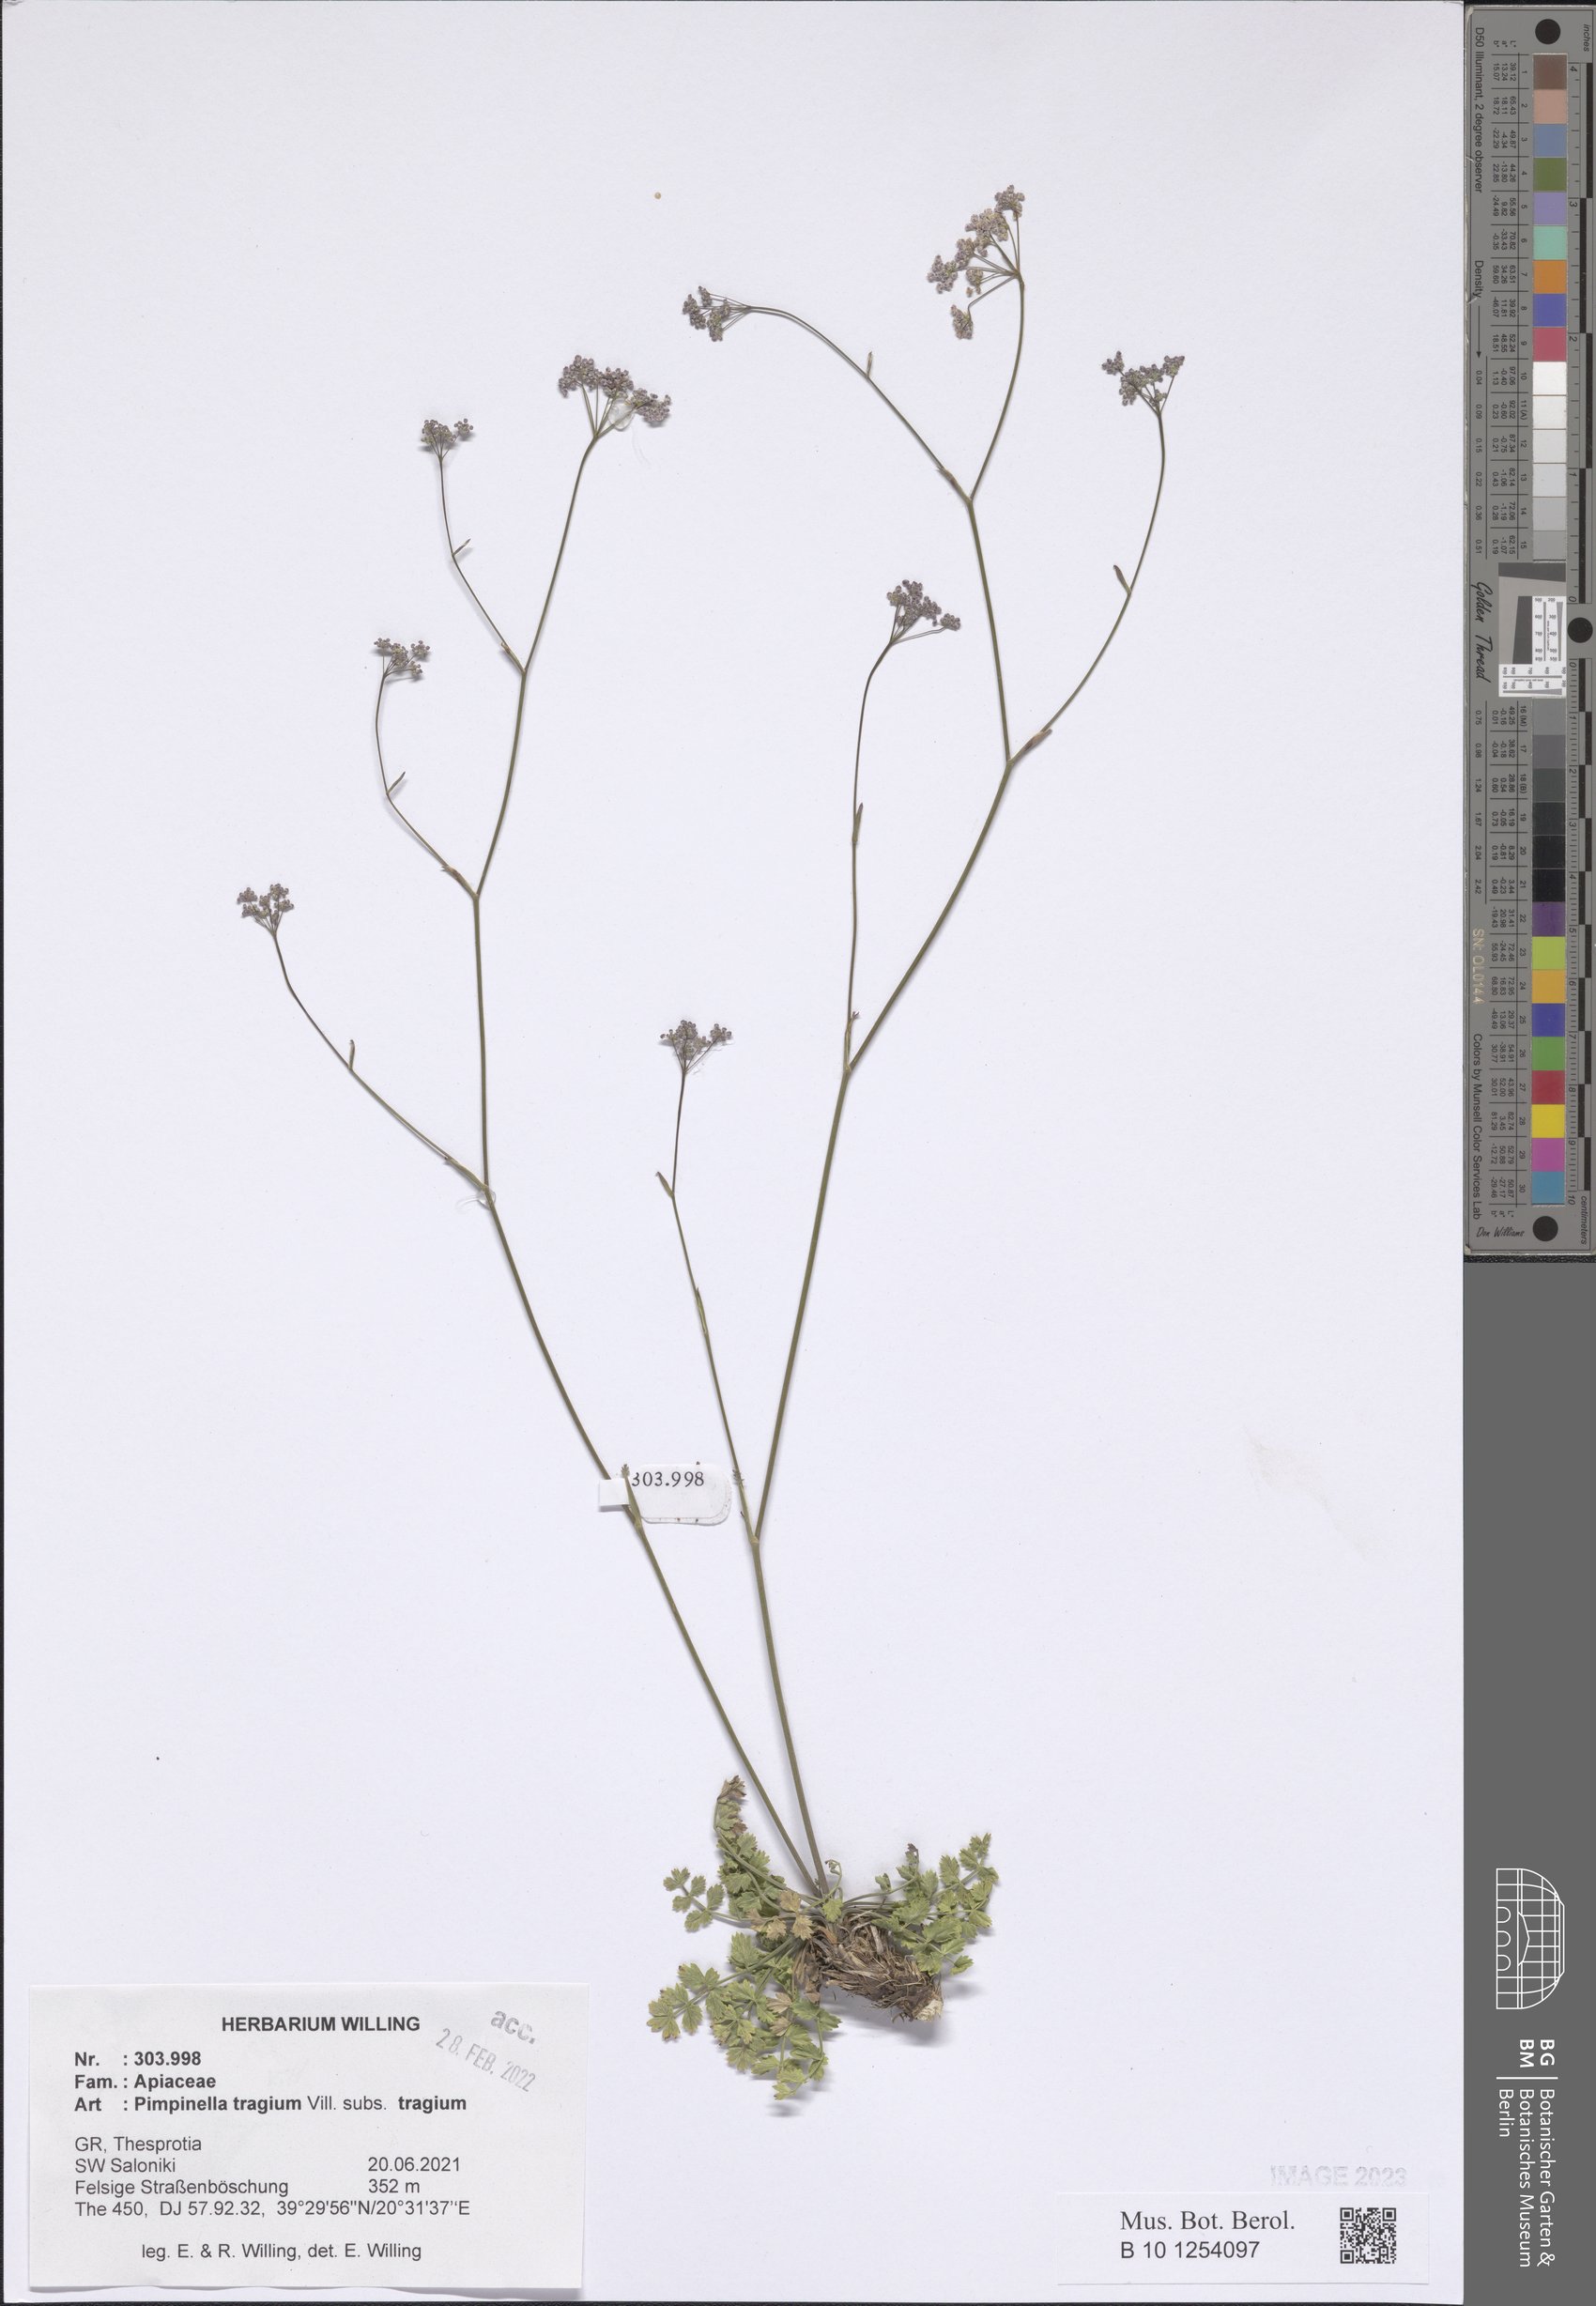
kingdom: Plantae
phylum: Tracheophyta
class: Magnoliopsida
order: Apiales
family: Apiaceae
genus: Pimpinella
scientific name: Pimpinella tragium
